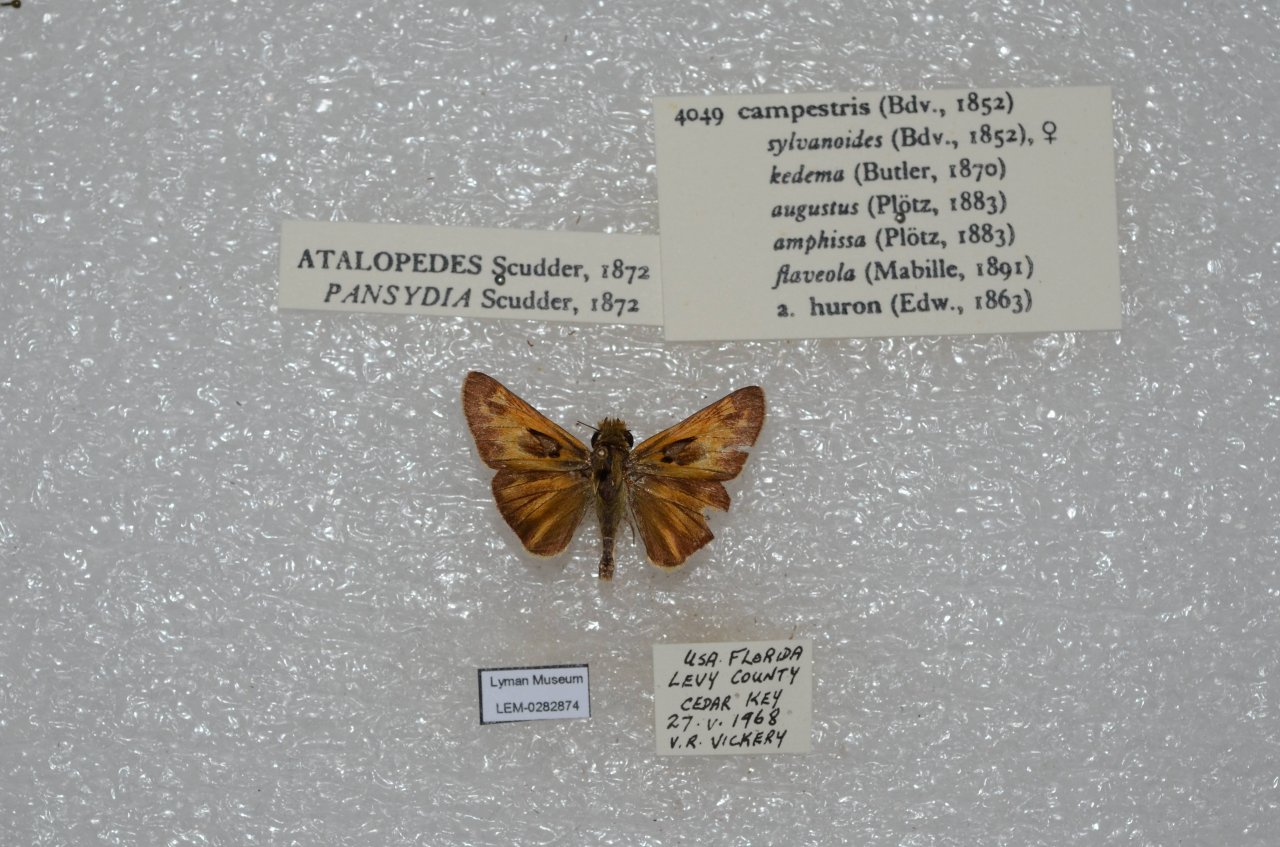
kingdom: Animalia
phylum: Arthropoda
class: Insecta
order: Lepidoptera
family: Hesperiidae
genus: Atalopedes
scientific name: Atalopedes campestris
